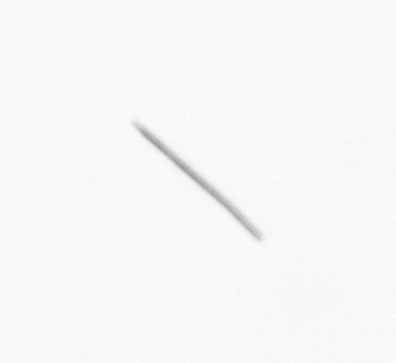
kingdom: Chromista
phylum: Ochrophyta
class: Bacillariophyceae
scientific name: Bacillariophyceae
